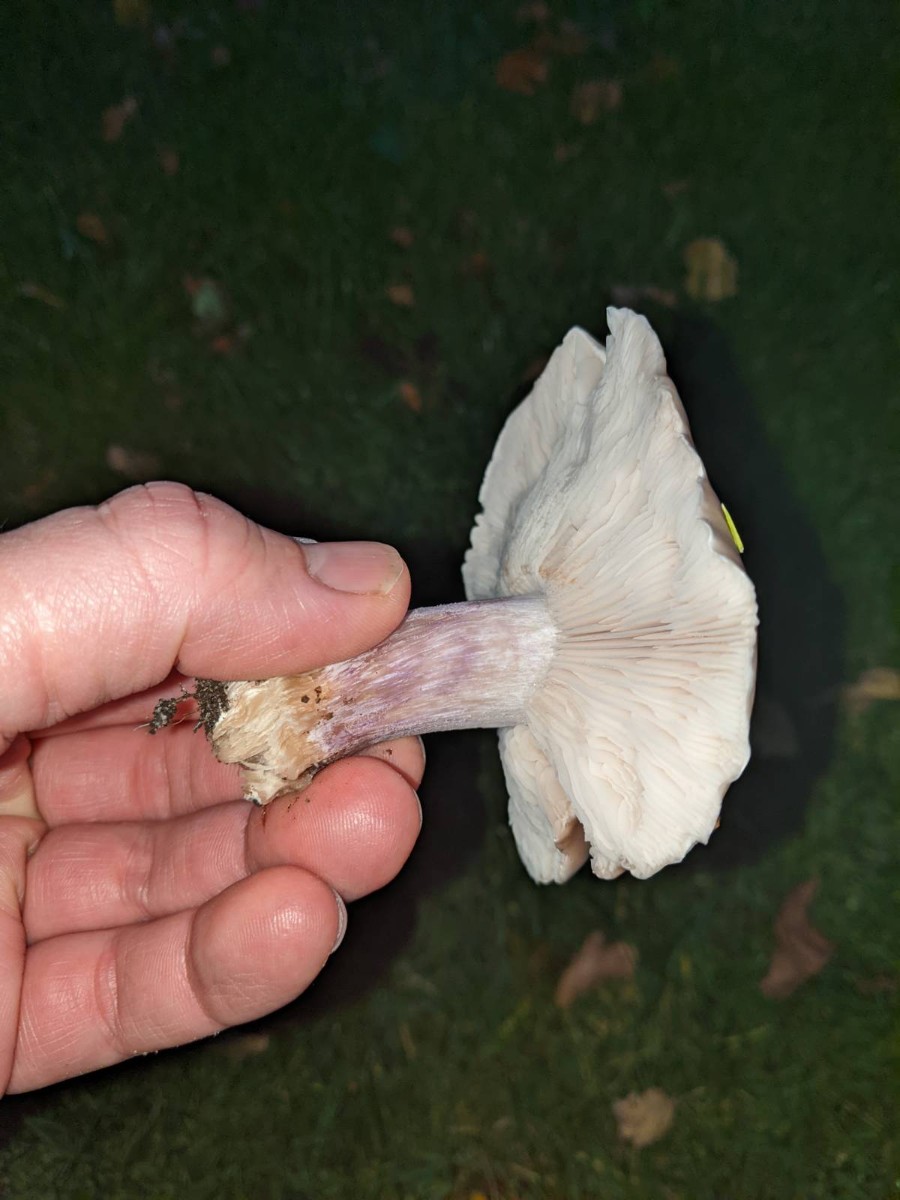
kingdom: Fungi
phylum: Basidiomycota
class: Agaricomycetes
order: Agaricales
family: Tricholomataceae
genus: Lepista
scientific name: Lepista personata
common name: bleg hekseringshat
